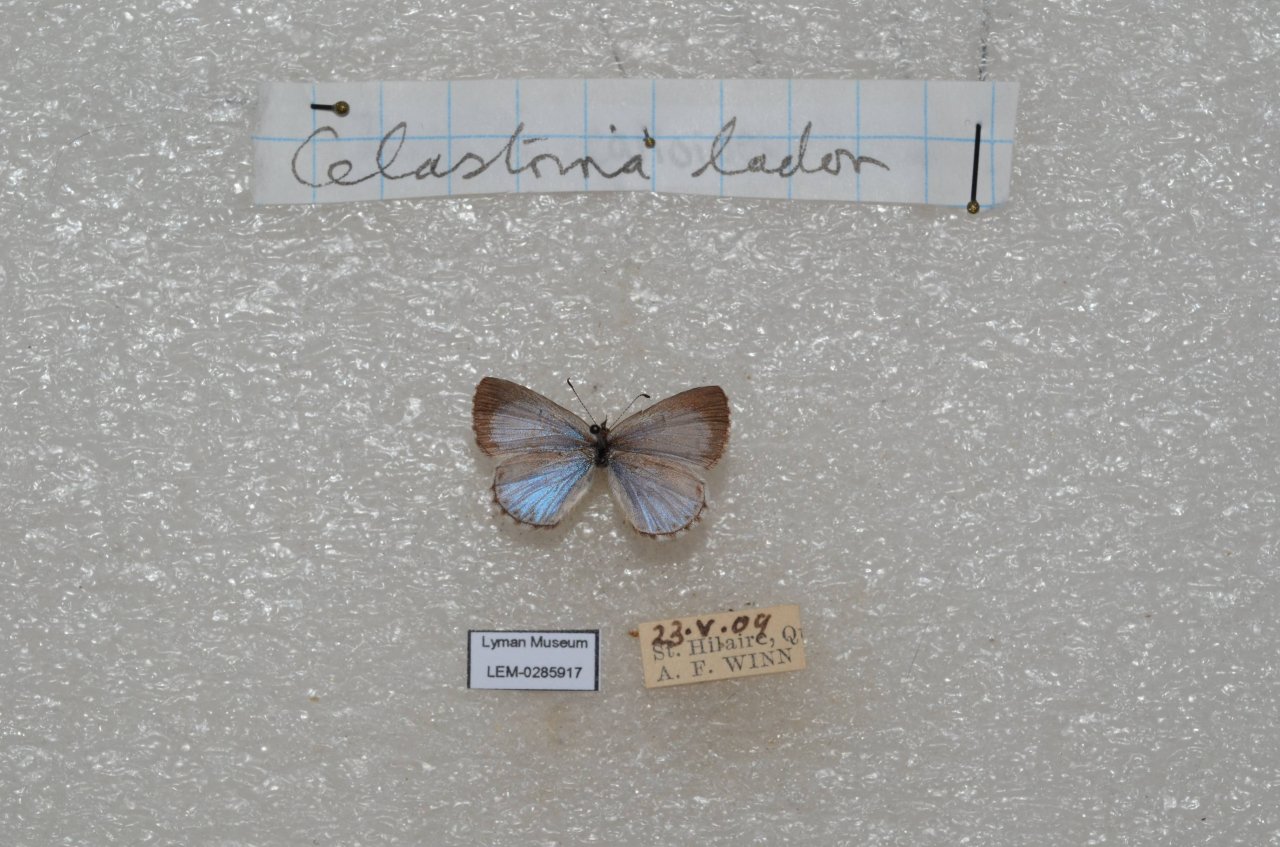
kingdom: Animalia
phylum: Arthropoda
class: Insecta
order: Lepidoptera
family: Lycaenidae
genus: Celastrina
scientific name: Celastrina lucia
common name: Northern Spring Azure
